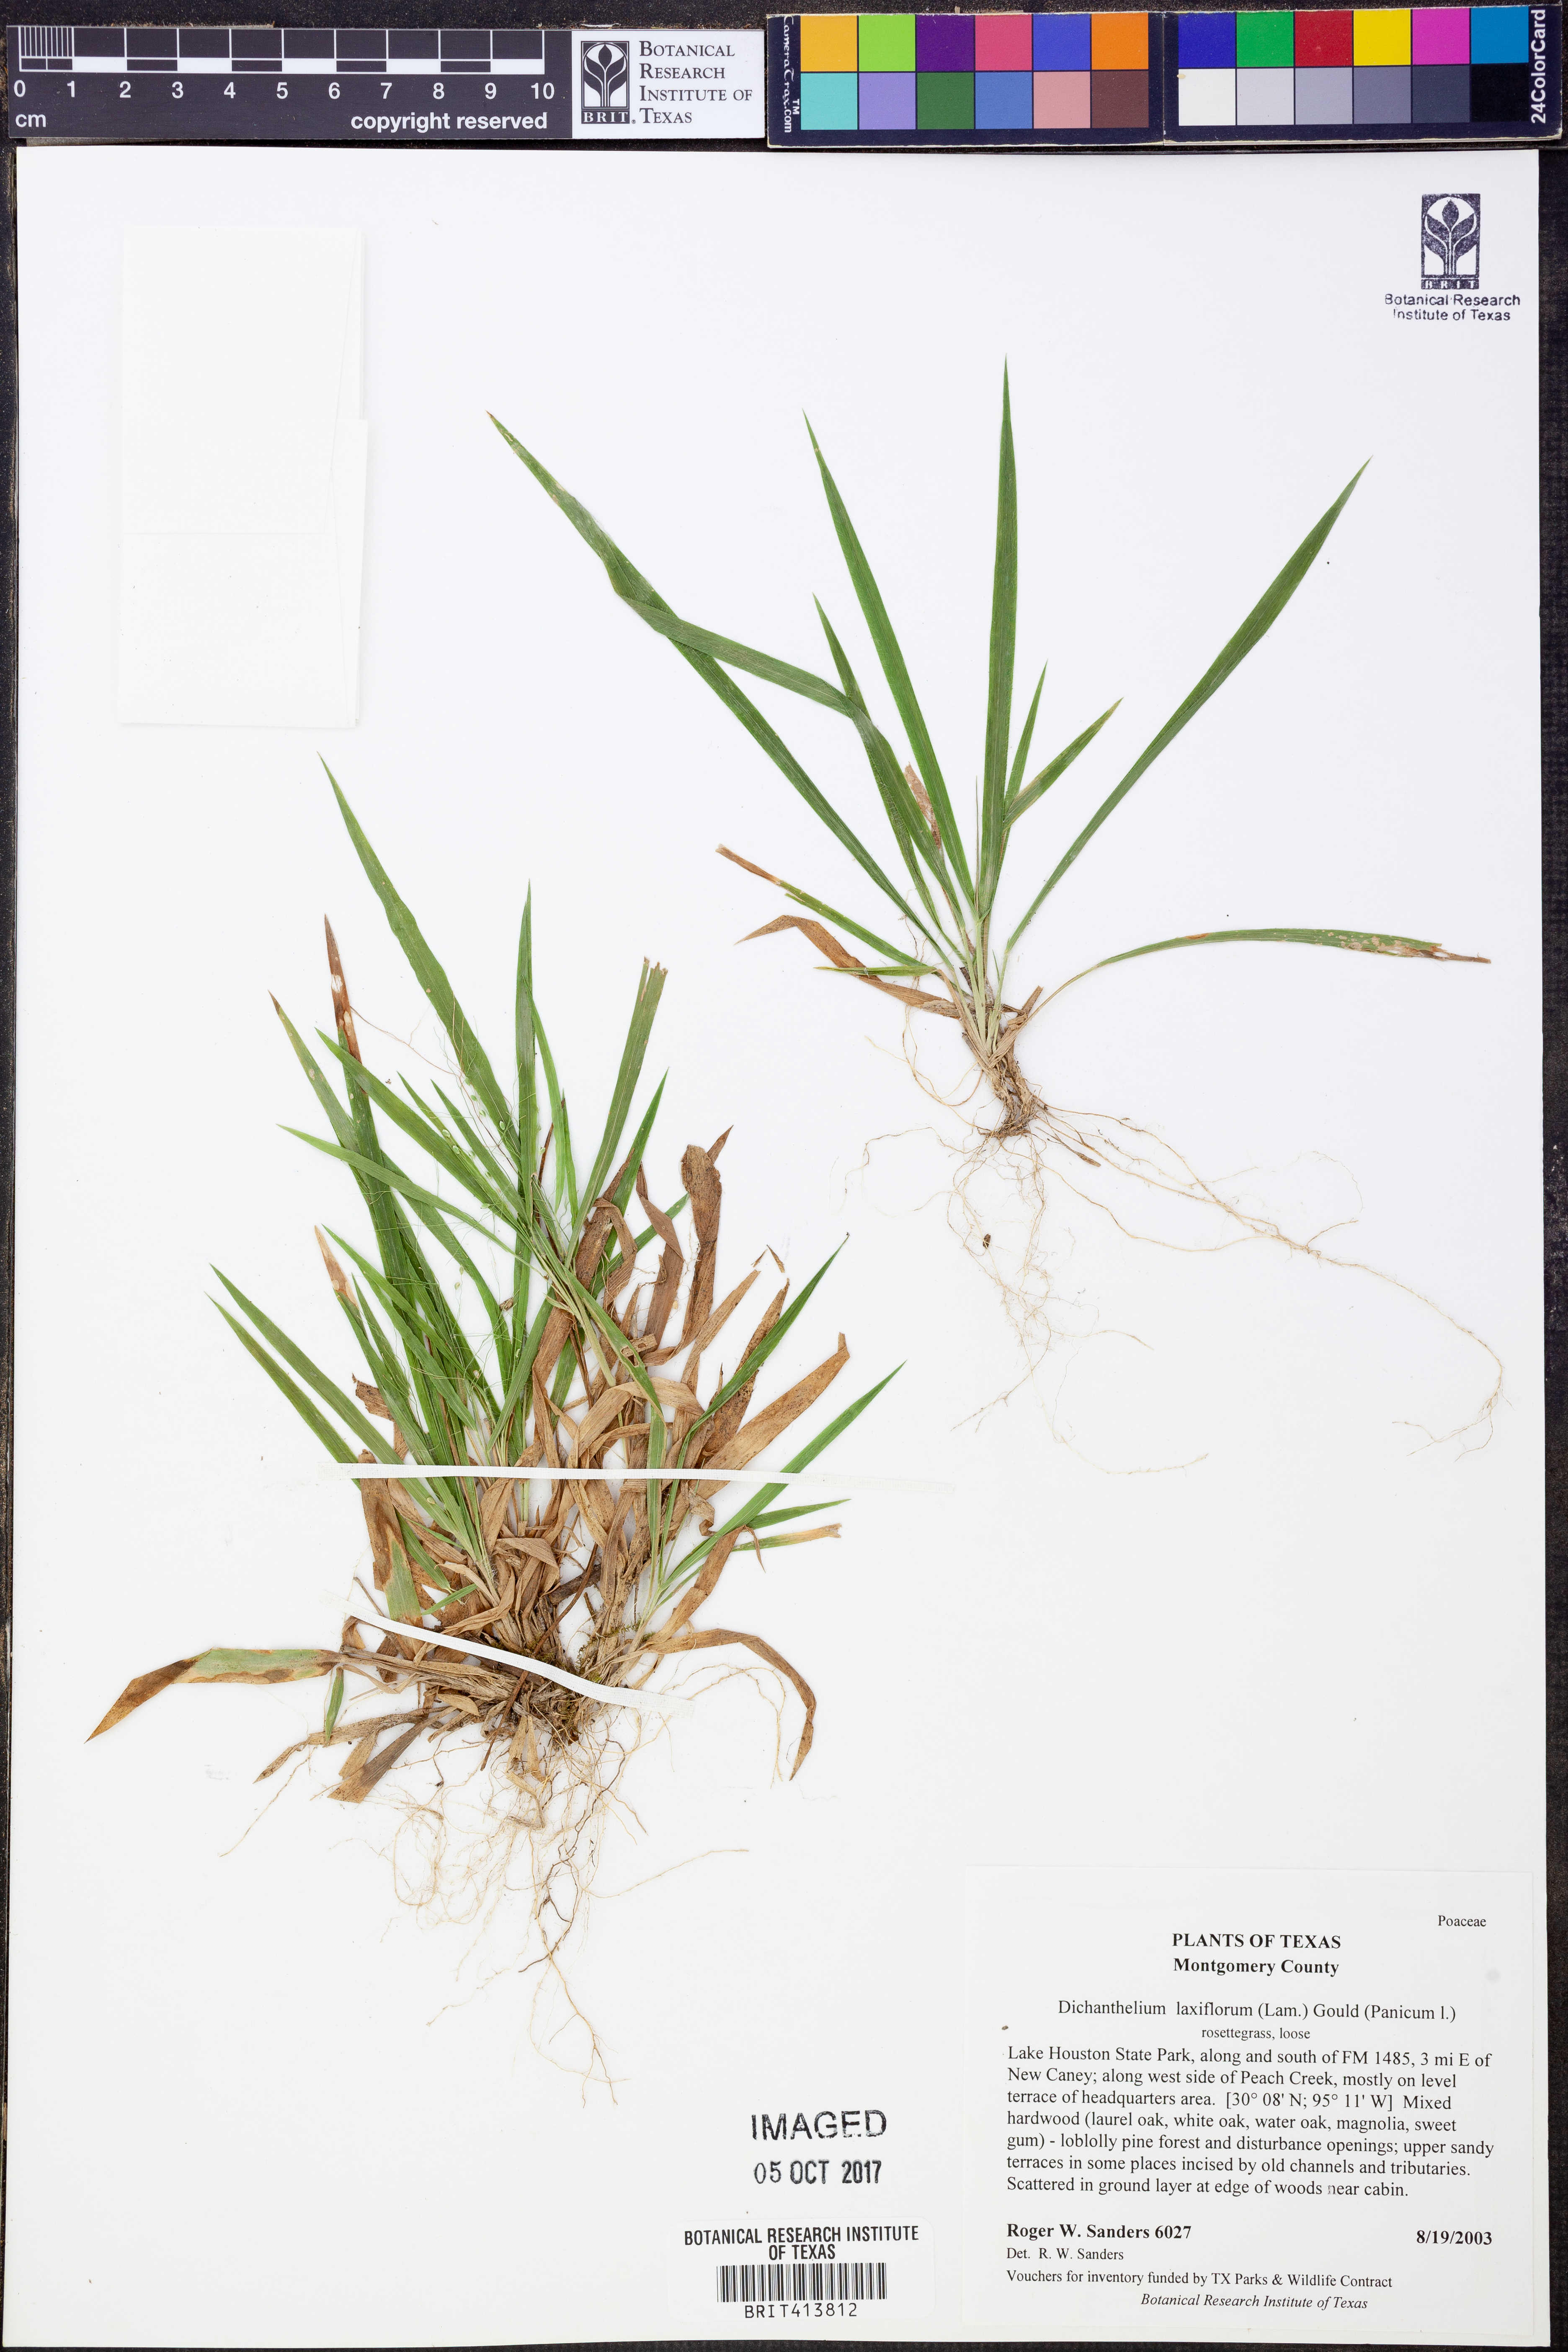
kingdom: Plantae
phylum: Tracheophyta
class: Liliopsida
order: Poales
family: Poaceae
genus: Dichanthelium
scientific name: Dichanthelium laxiflorum
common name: Soft-tuft panic grass
